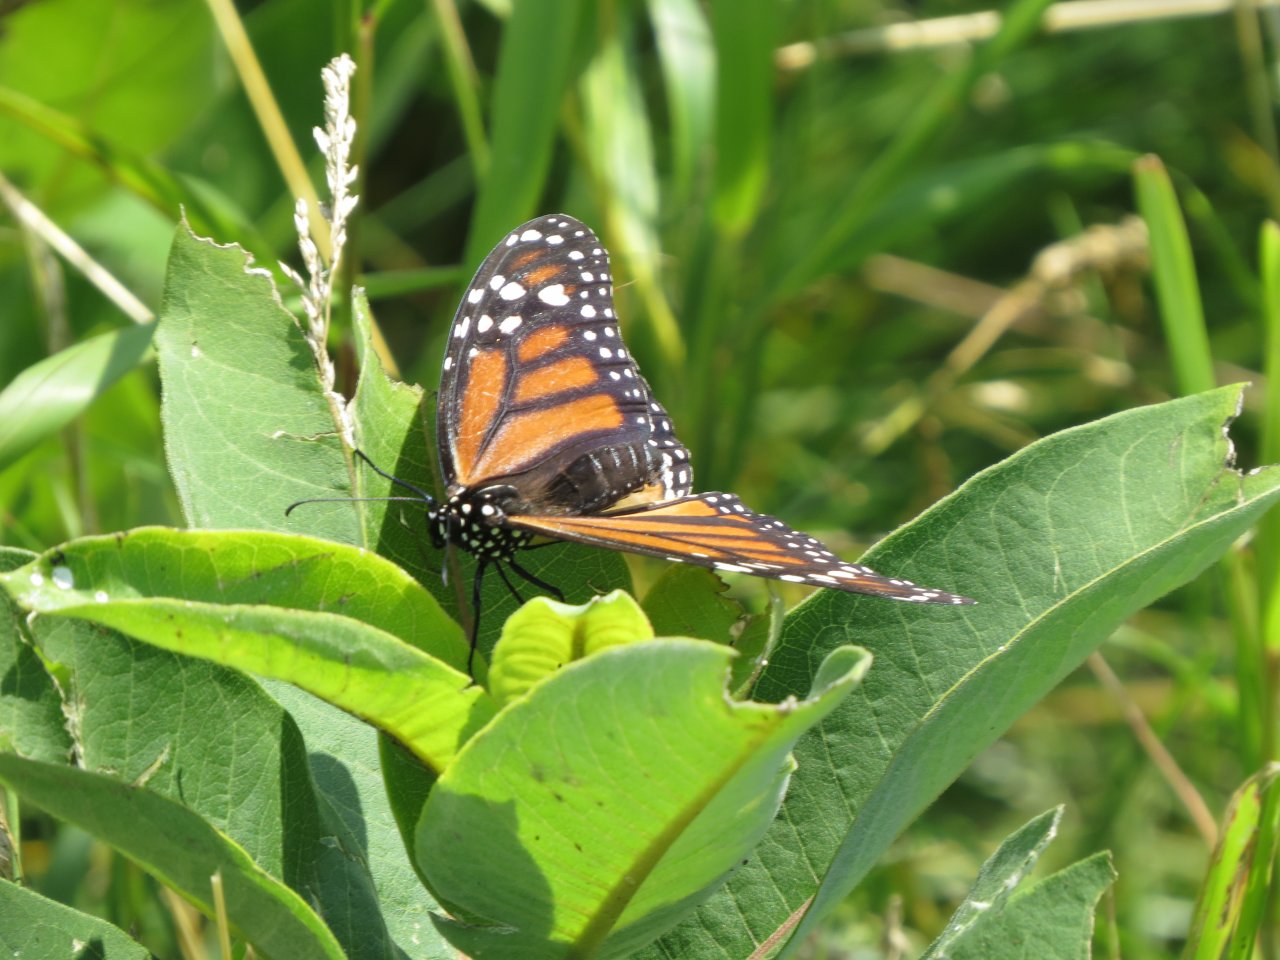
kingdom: Animalia
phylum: Arthropoda
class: Insecta
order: Lepidoptera
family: Nymphalidae
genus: Danaus
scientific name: Danaus plexippus
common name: Monarch
